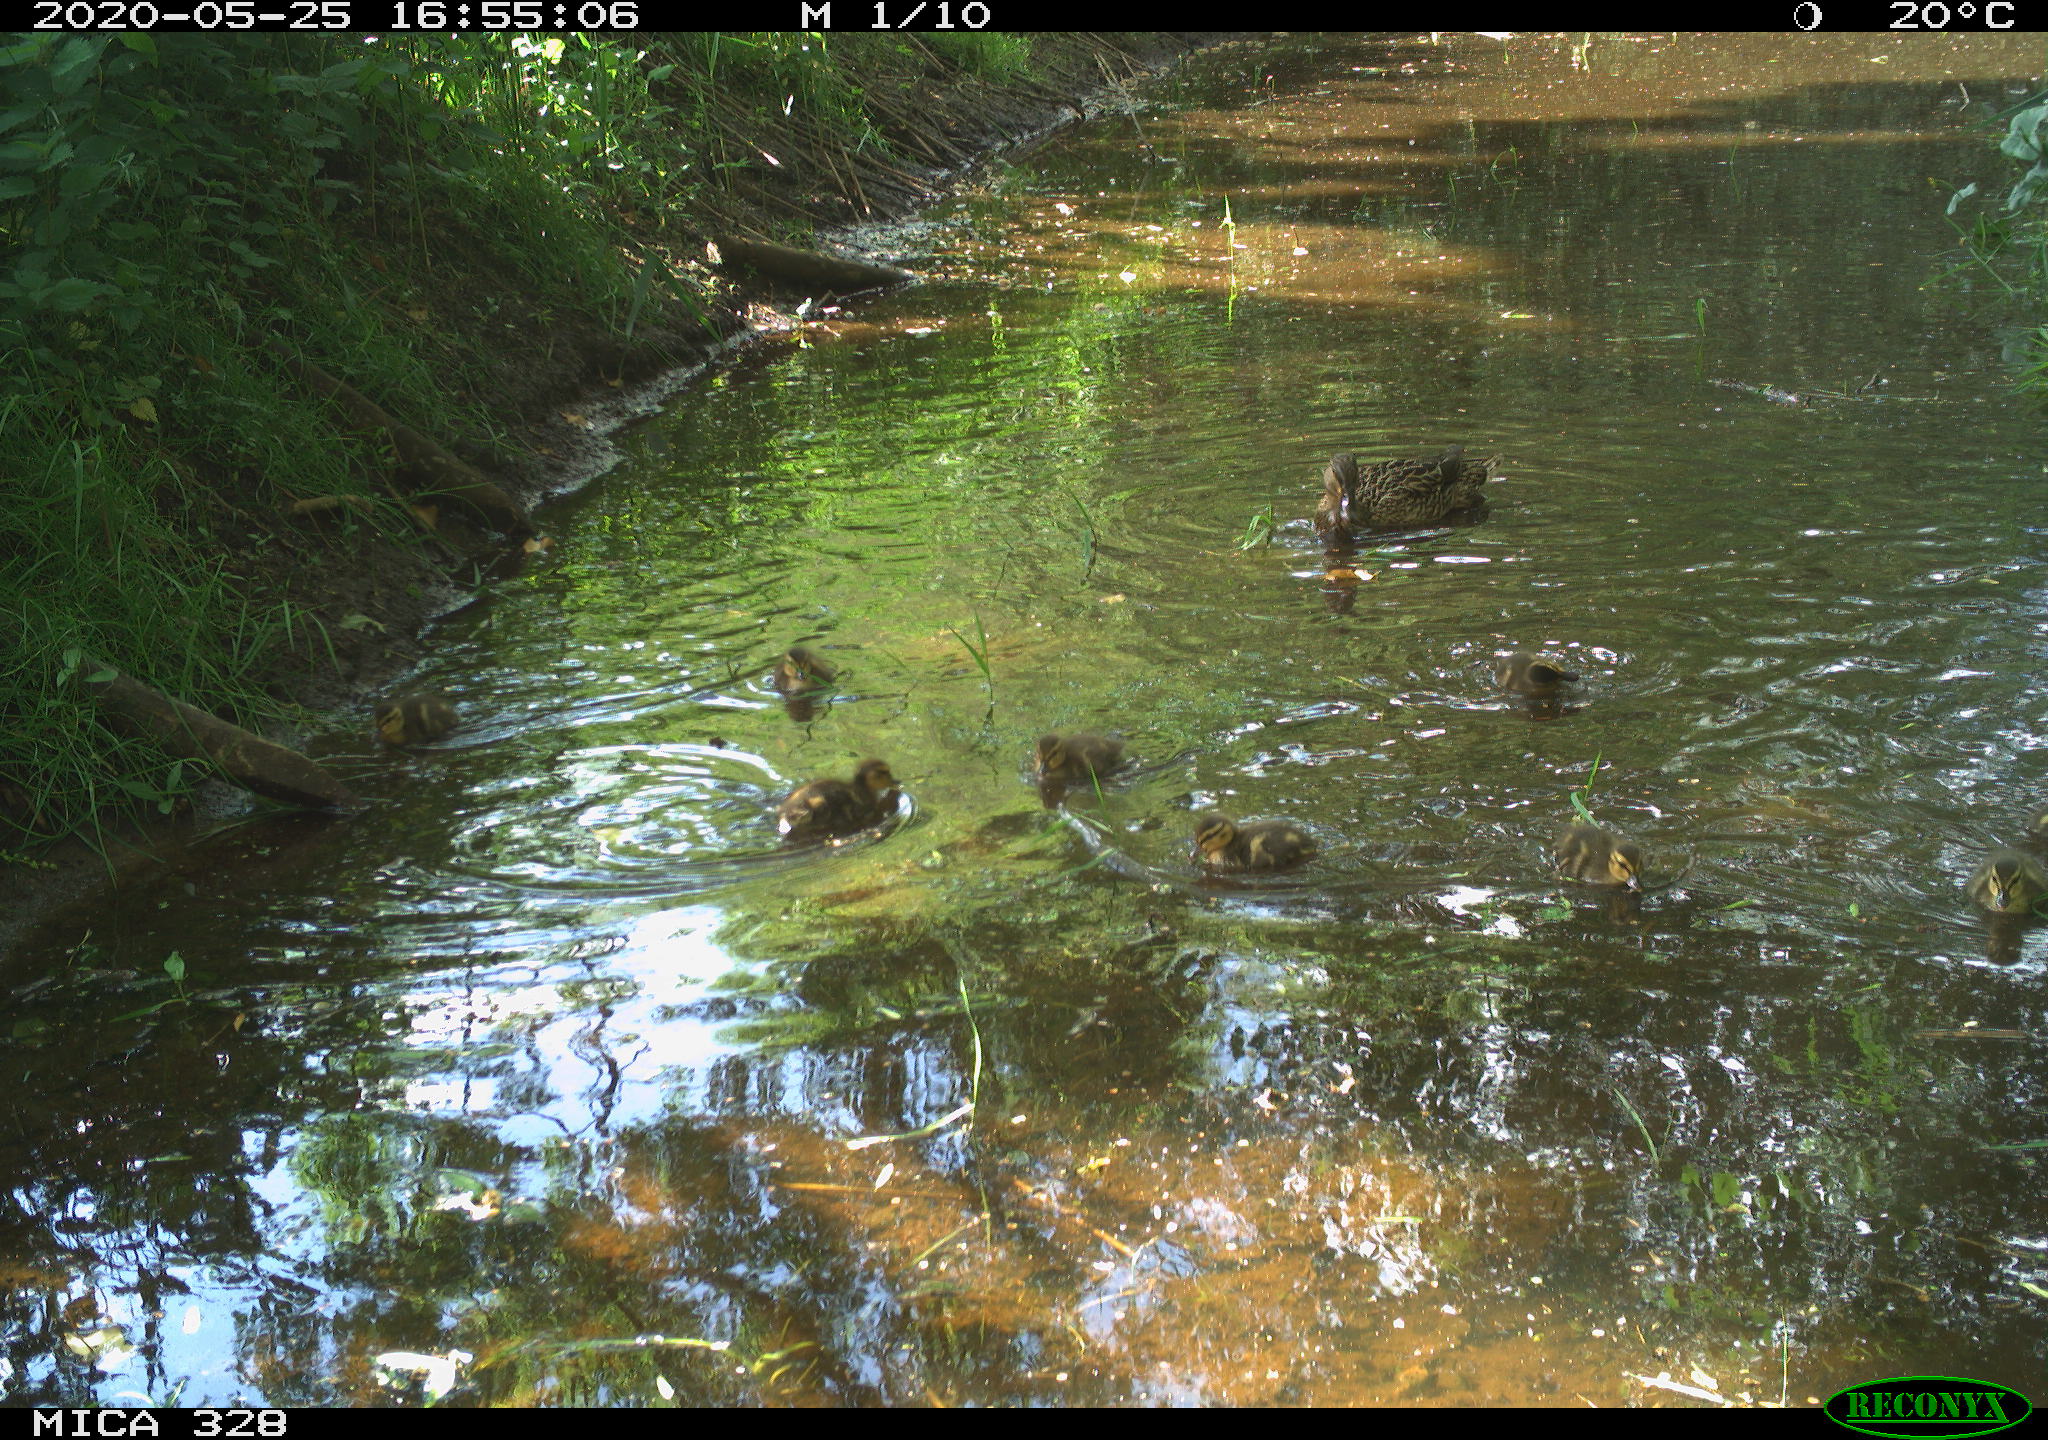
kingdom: Animalia
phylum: Chordata
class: Aves
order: Anseriformes
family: Anatidae
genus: Anas
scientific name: Anas platyrhynchos
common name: Mallard
